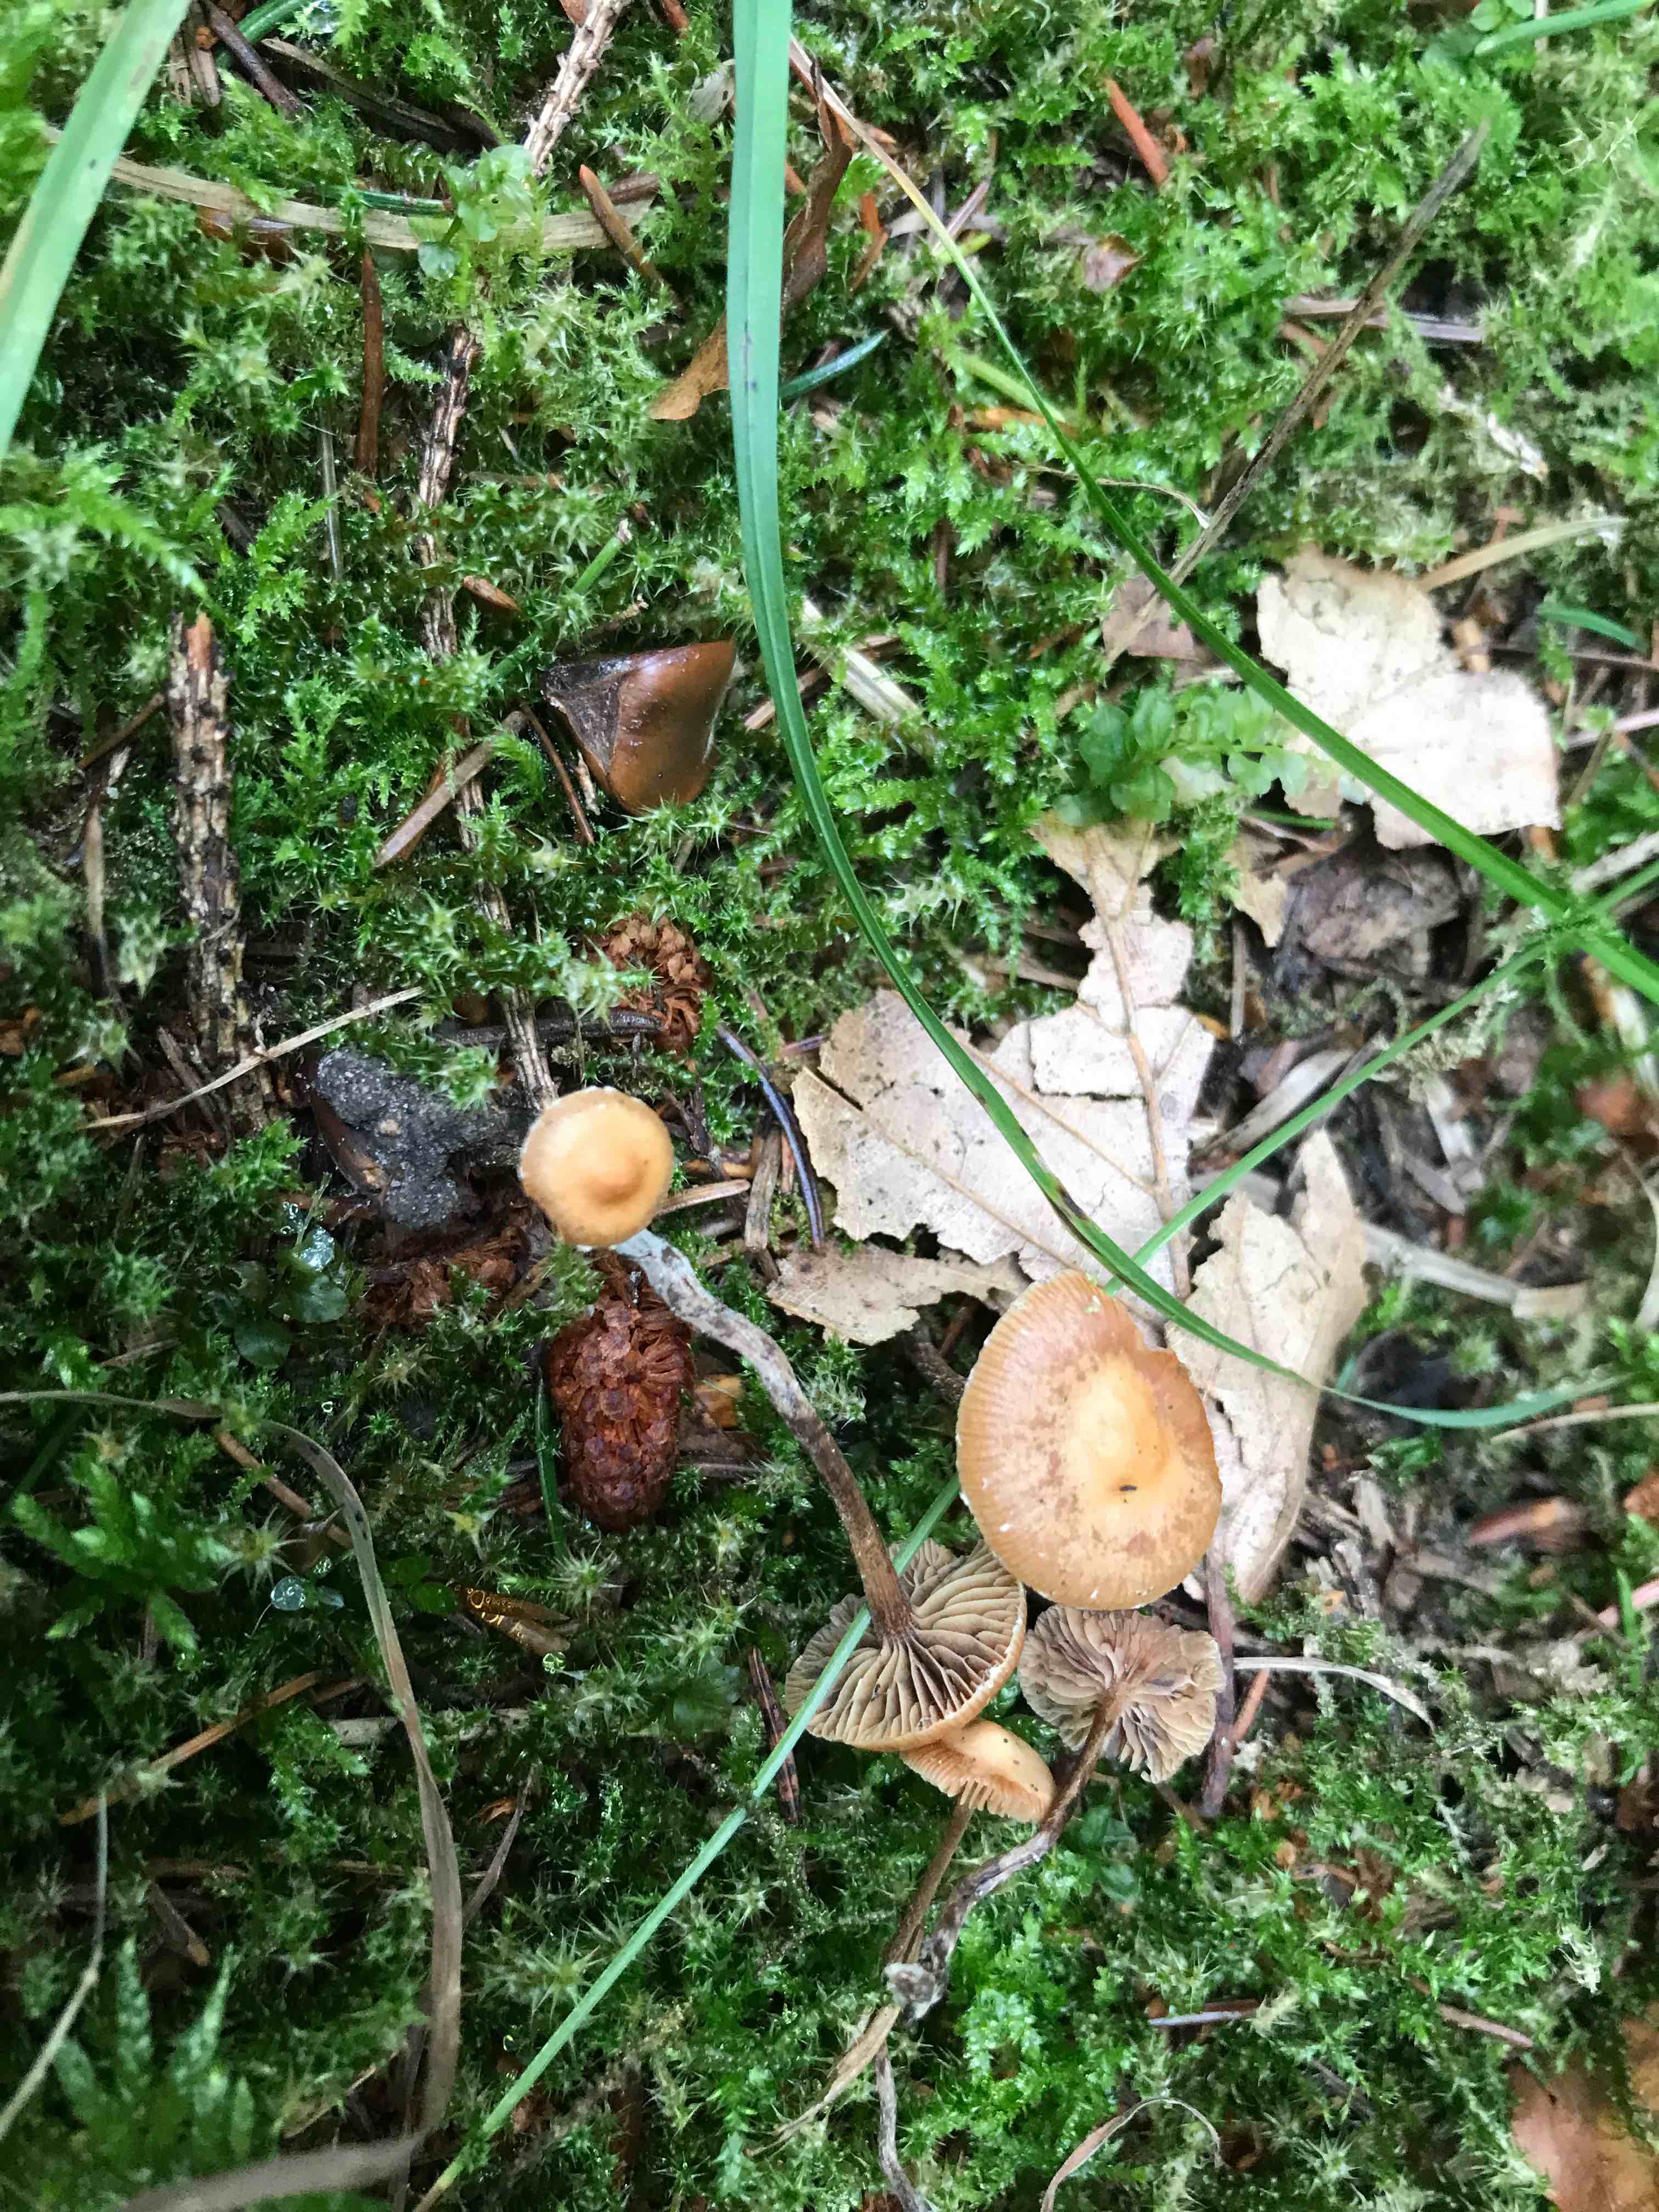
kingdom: Fungi
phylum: Basidiomycota
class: Agaricomycetes
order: Agaricales
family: Strophariaceae
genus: Deconica
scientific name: Deconica
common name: stråhat
